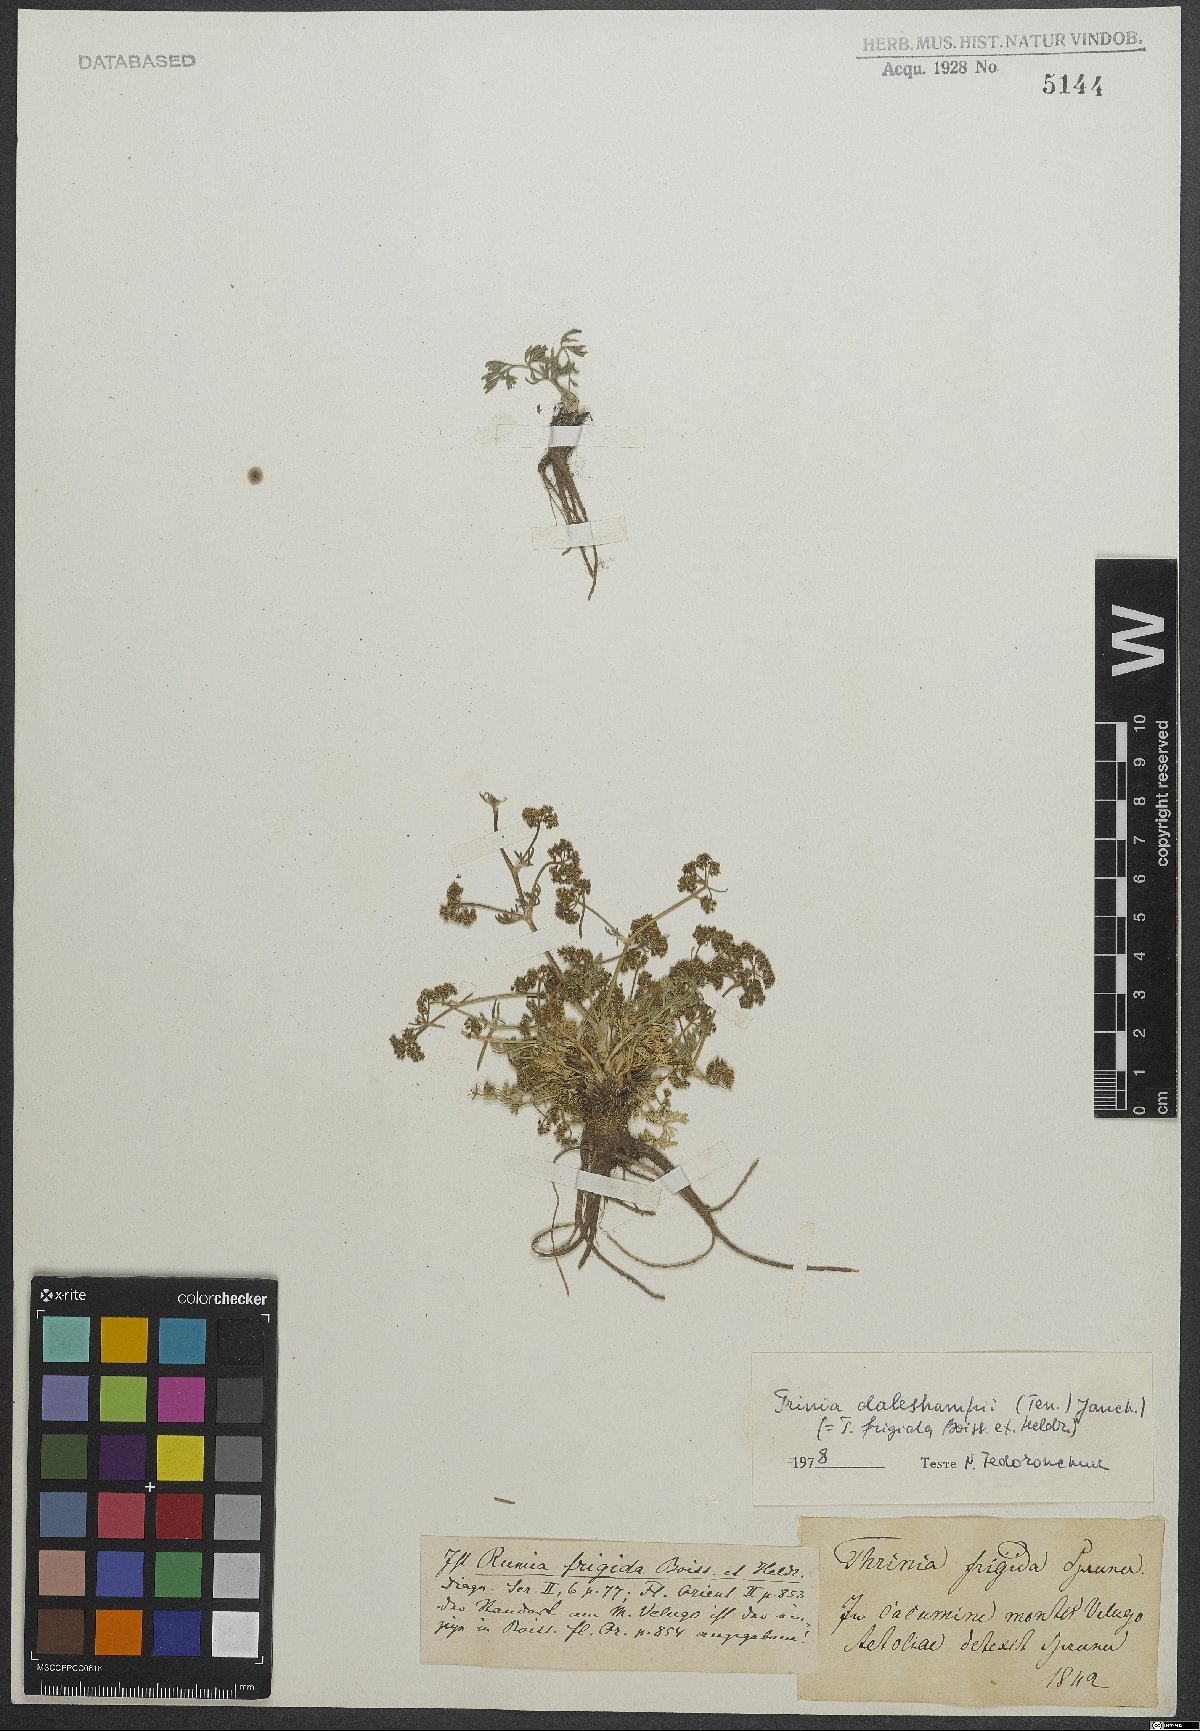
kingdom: Plantae
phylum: Tracheophyta
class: Magnoliopsida
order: Apiales
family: Apiaceae
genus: Trinia
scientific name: Trinia dalechampii
